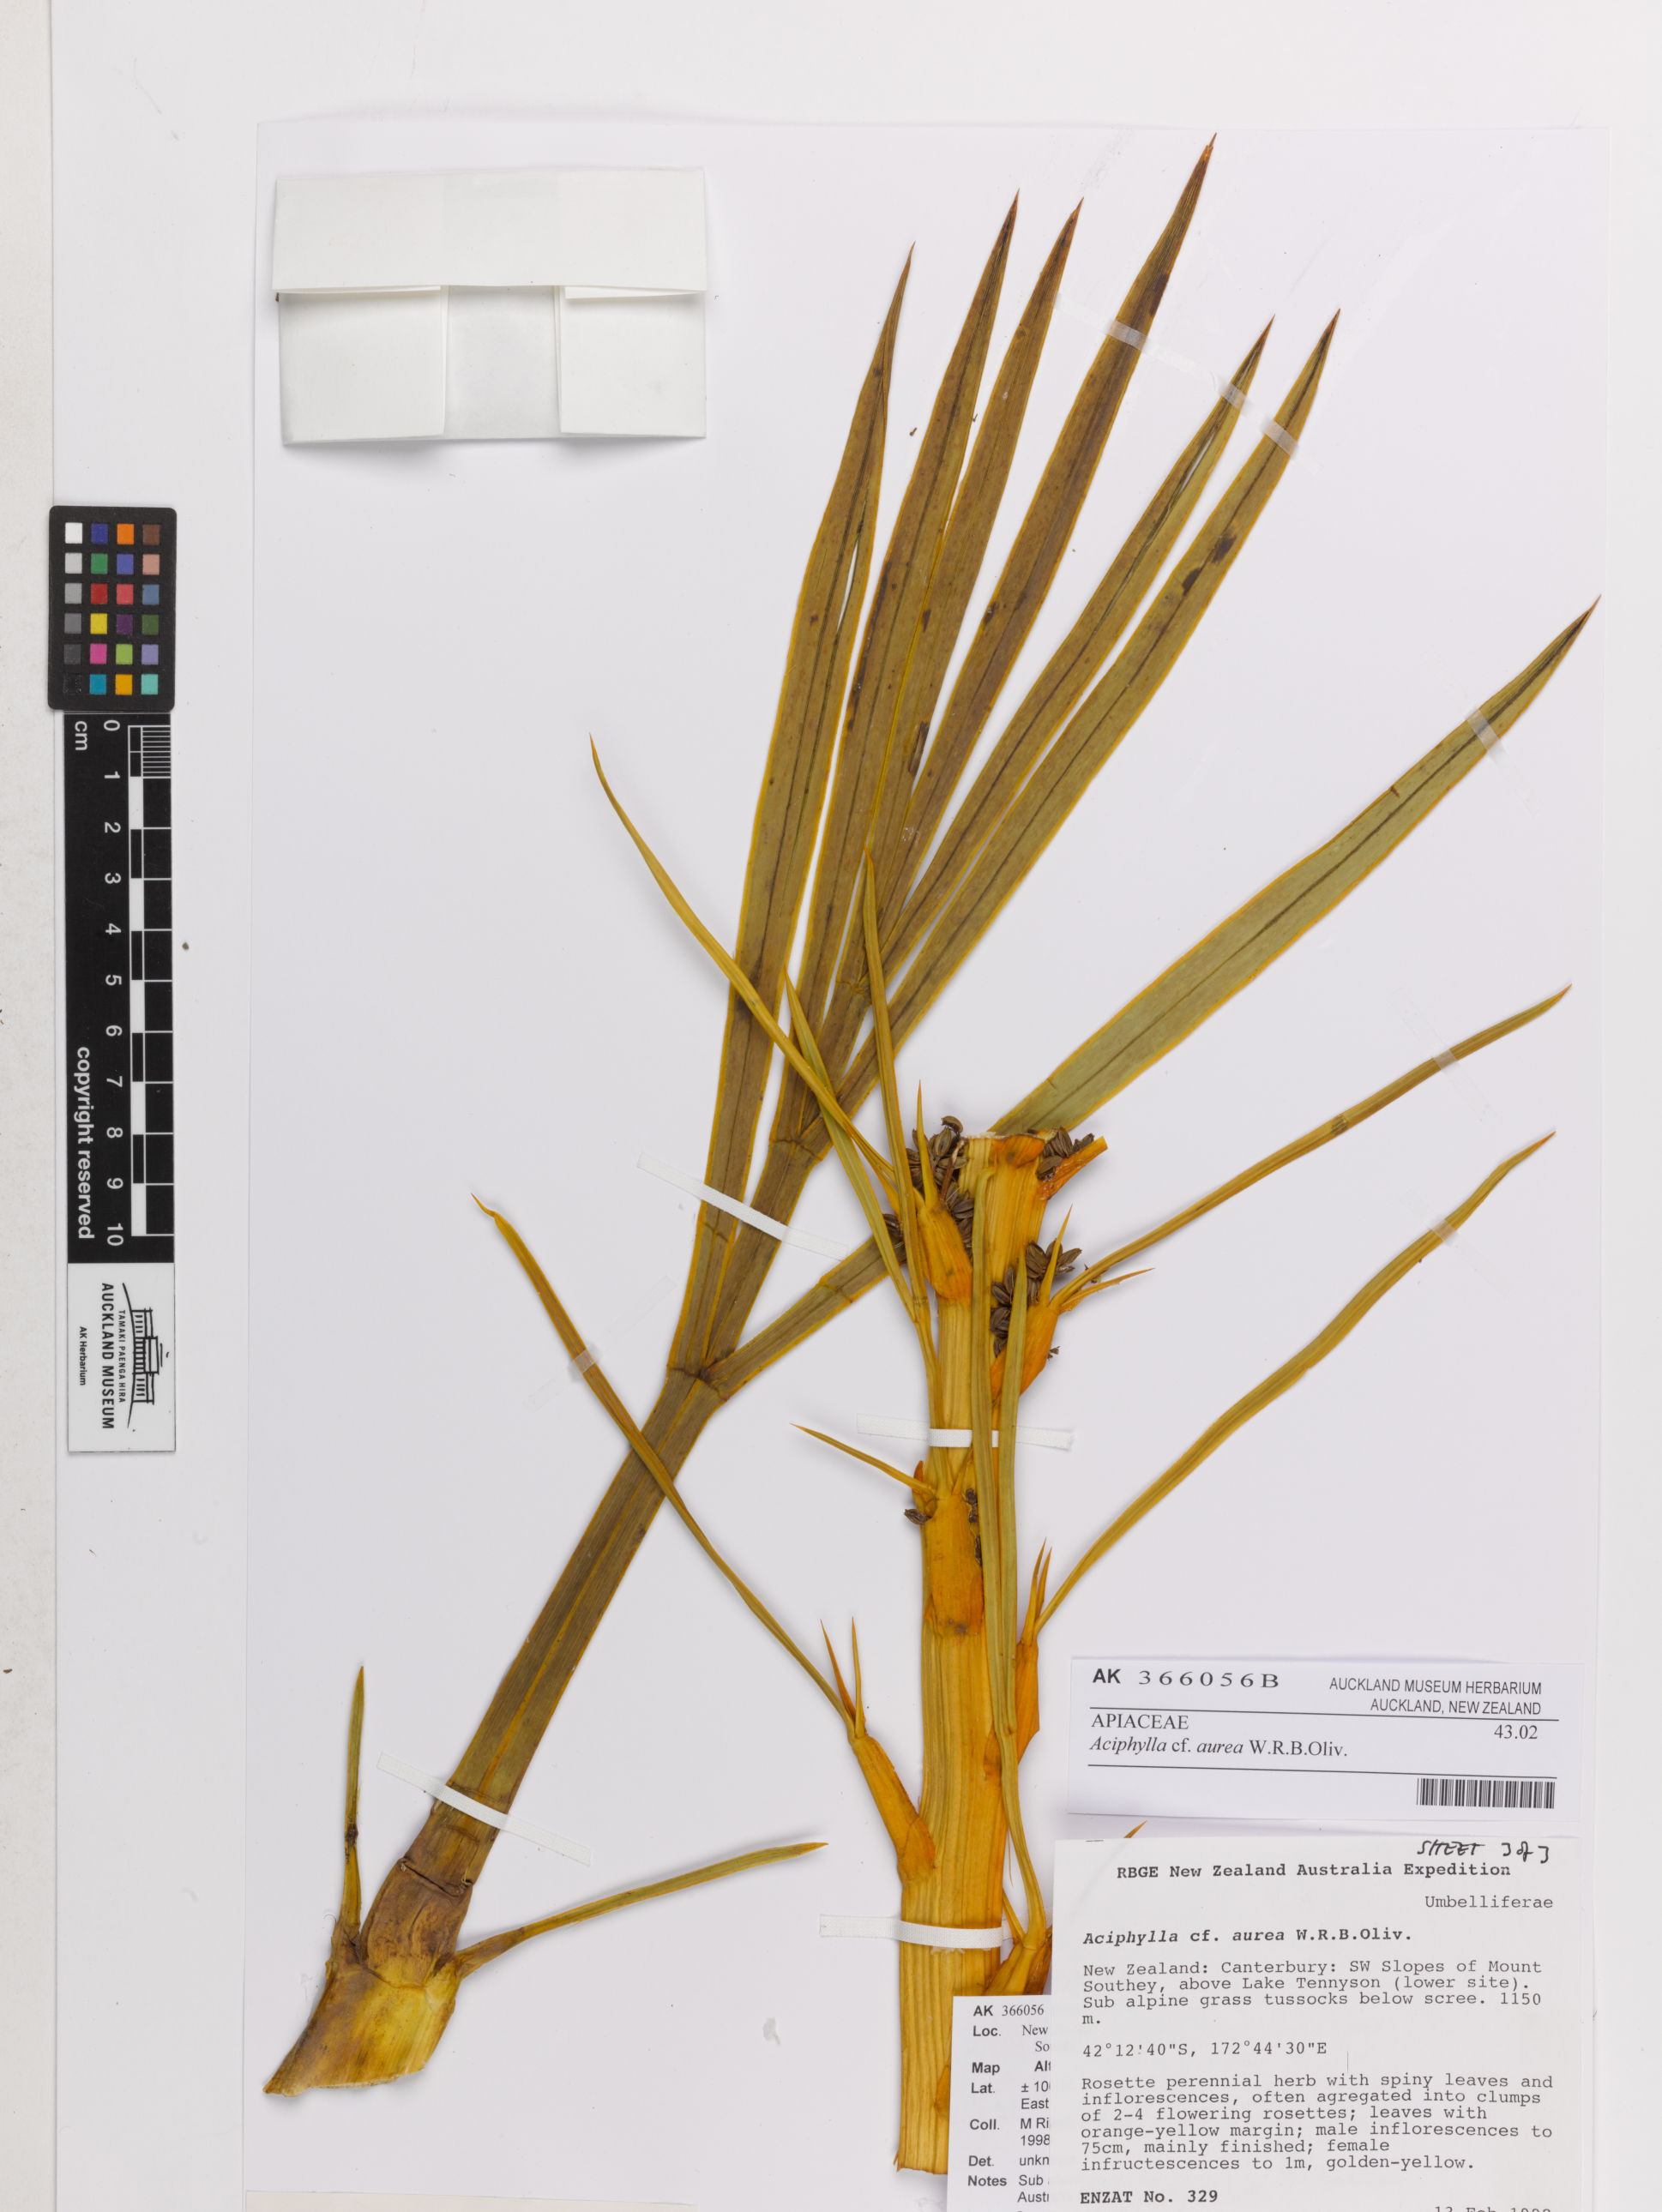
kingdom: Plantae
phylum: Tracheophyta
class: Magnoliopsida
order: Apiales
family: Apiaceae
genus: Aciphylla
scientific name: Aciphylla aurea
